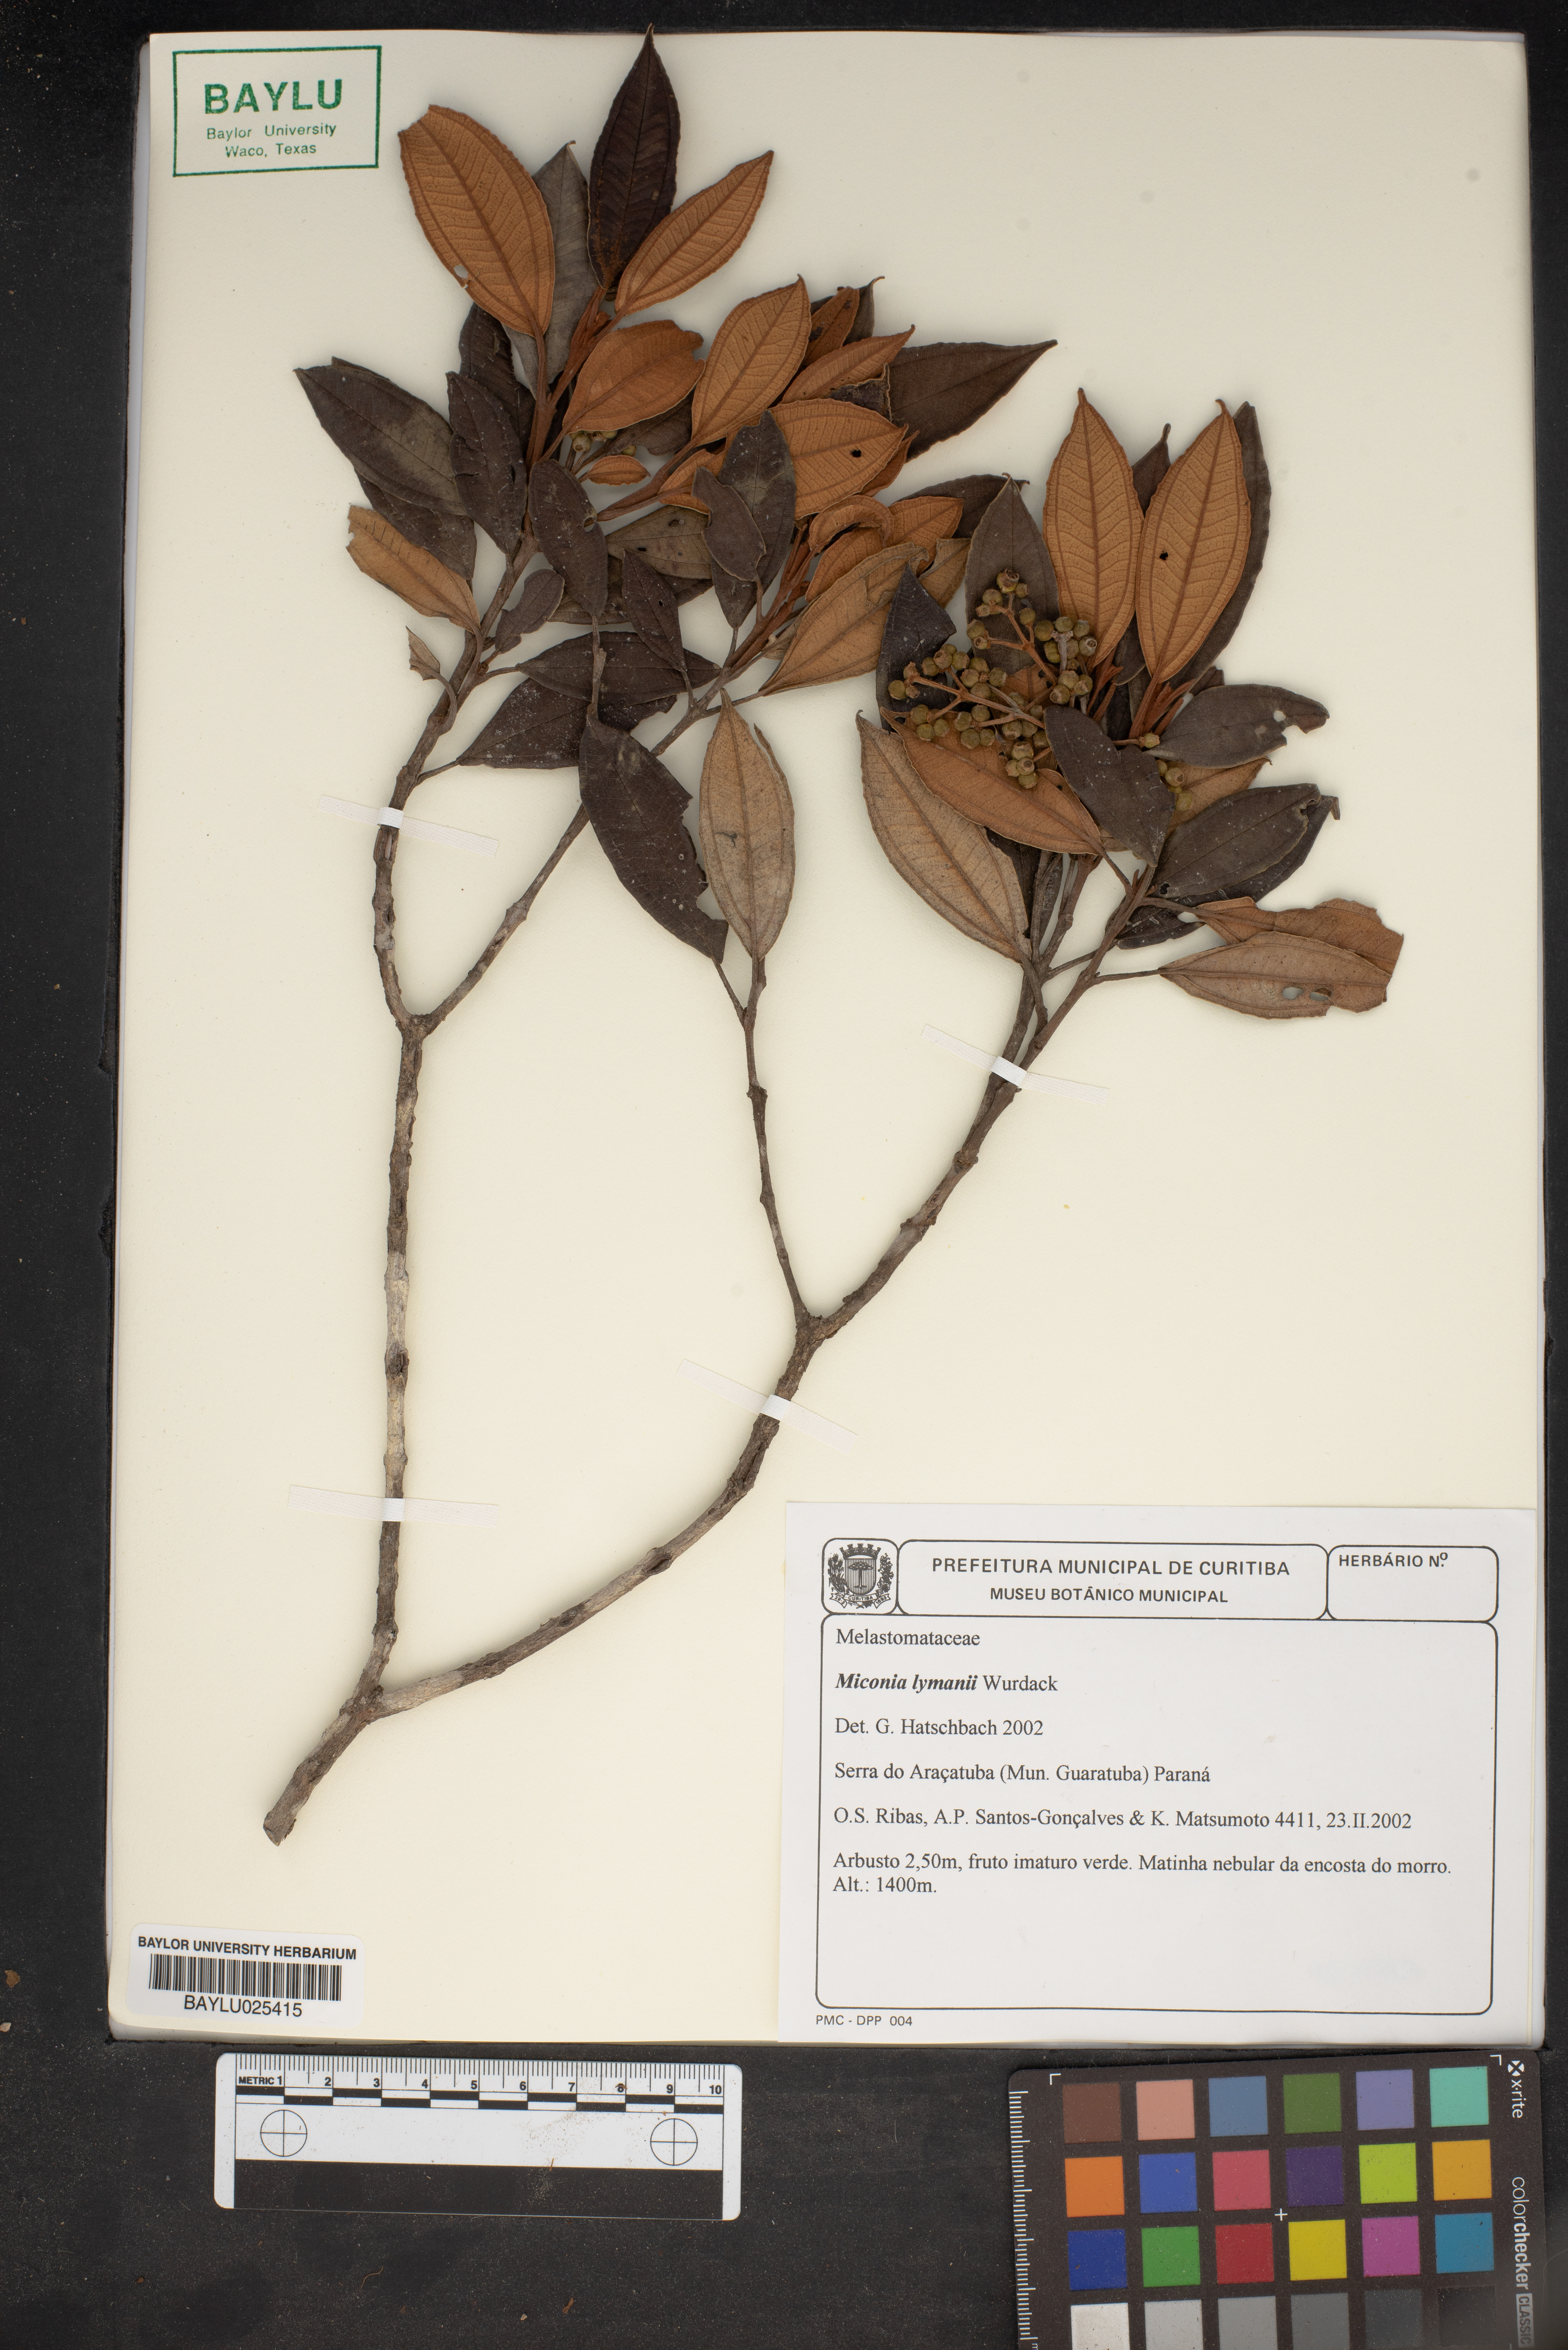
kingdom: Plantae
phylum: Tracheophyta
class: Magnoliopsida
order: Myrtales
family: Melastomataceae
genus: Miconia
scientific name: Miconia lymanii
